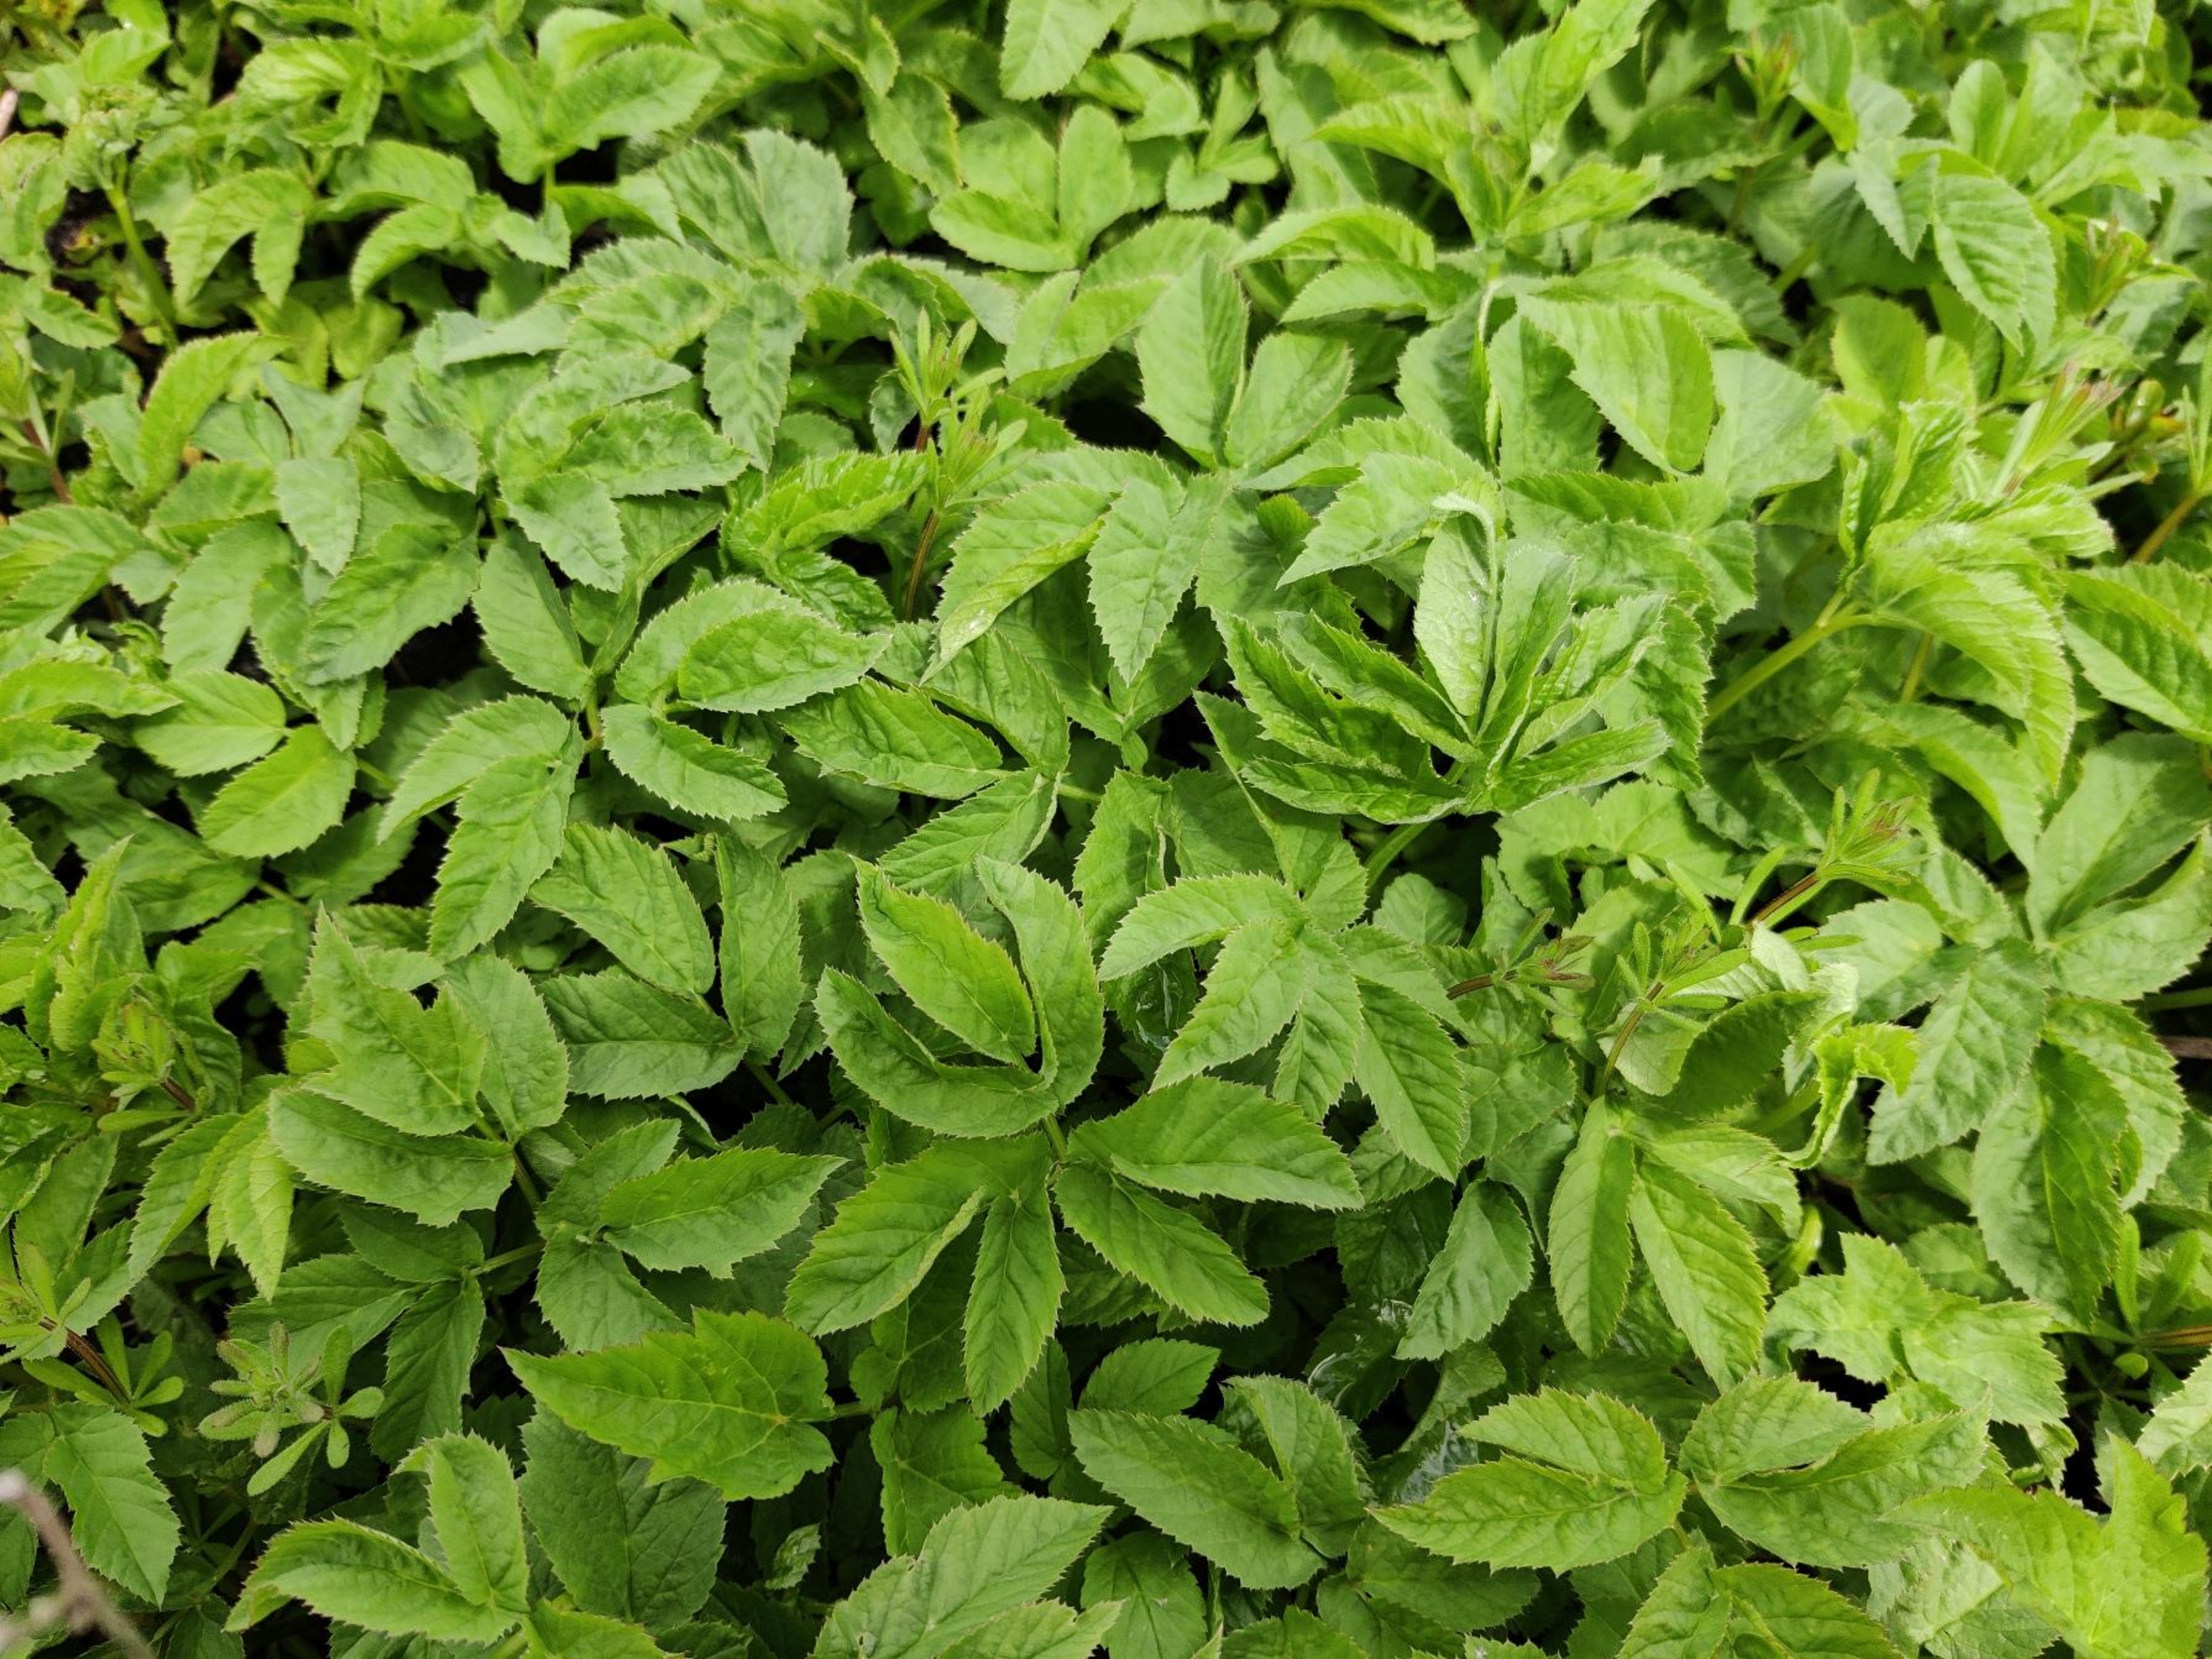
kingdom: Plantae
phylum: Tracheophyta
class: Magnoliopsida
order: Apiales
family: Apiaceae
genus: Aegopodium
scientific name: Aegopodium podagraria
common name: Skvalderkål
